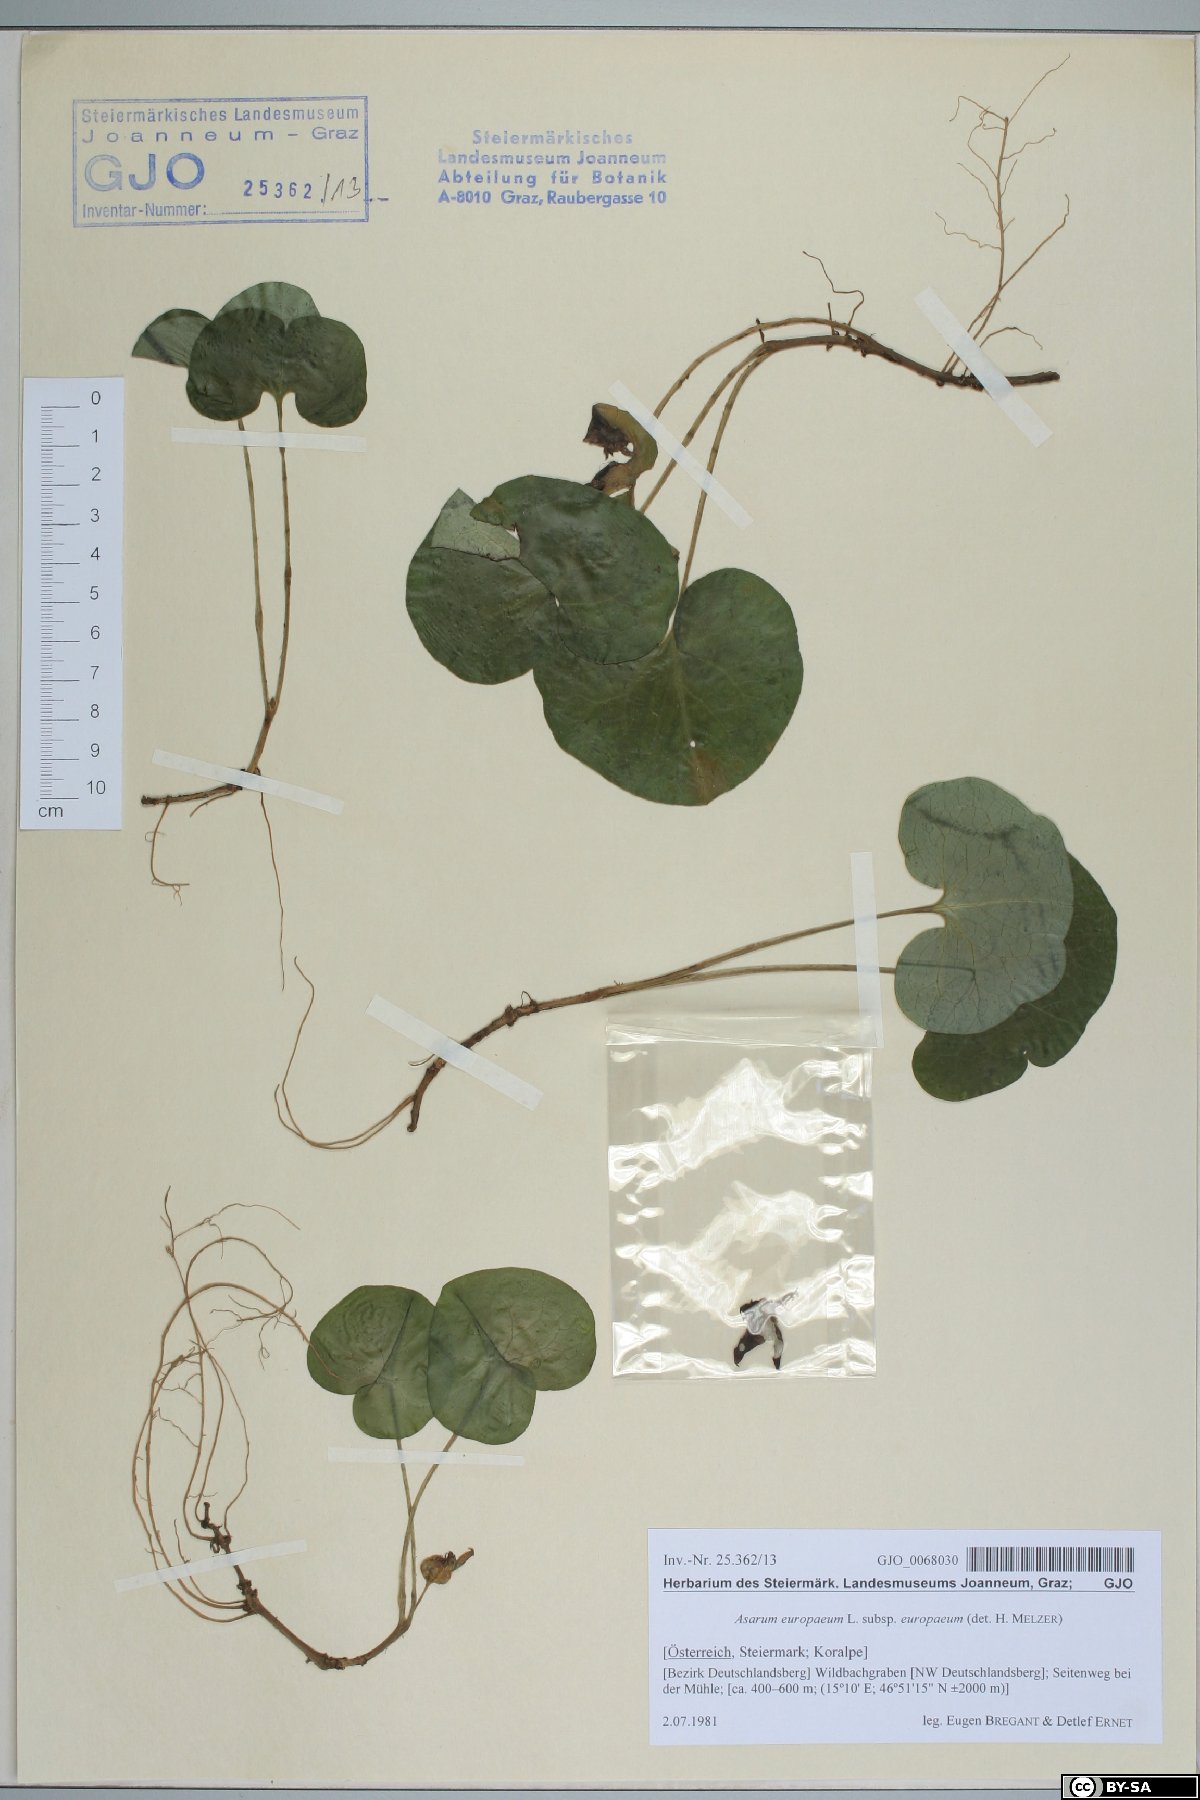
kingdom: Plantae
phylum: Tracheophyta
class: Magnoliopsida
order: Piperales
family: Aristolochiaceae
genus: Asarum
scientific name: Asarum europaeum
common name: Asarabacca
